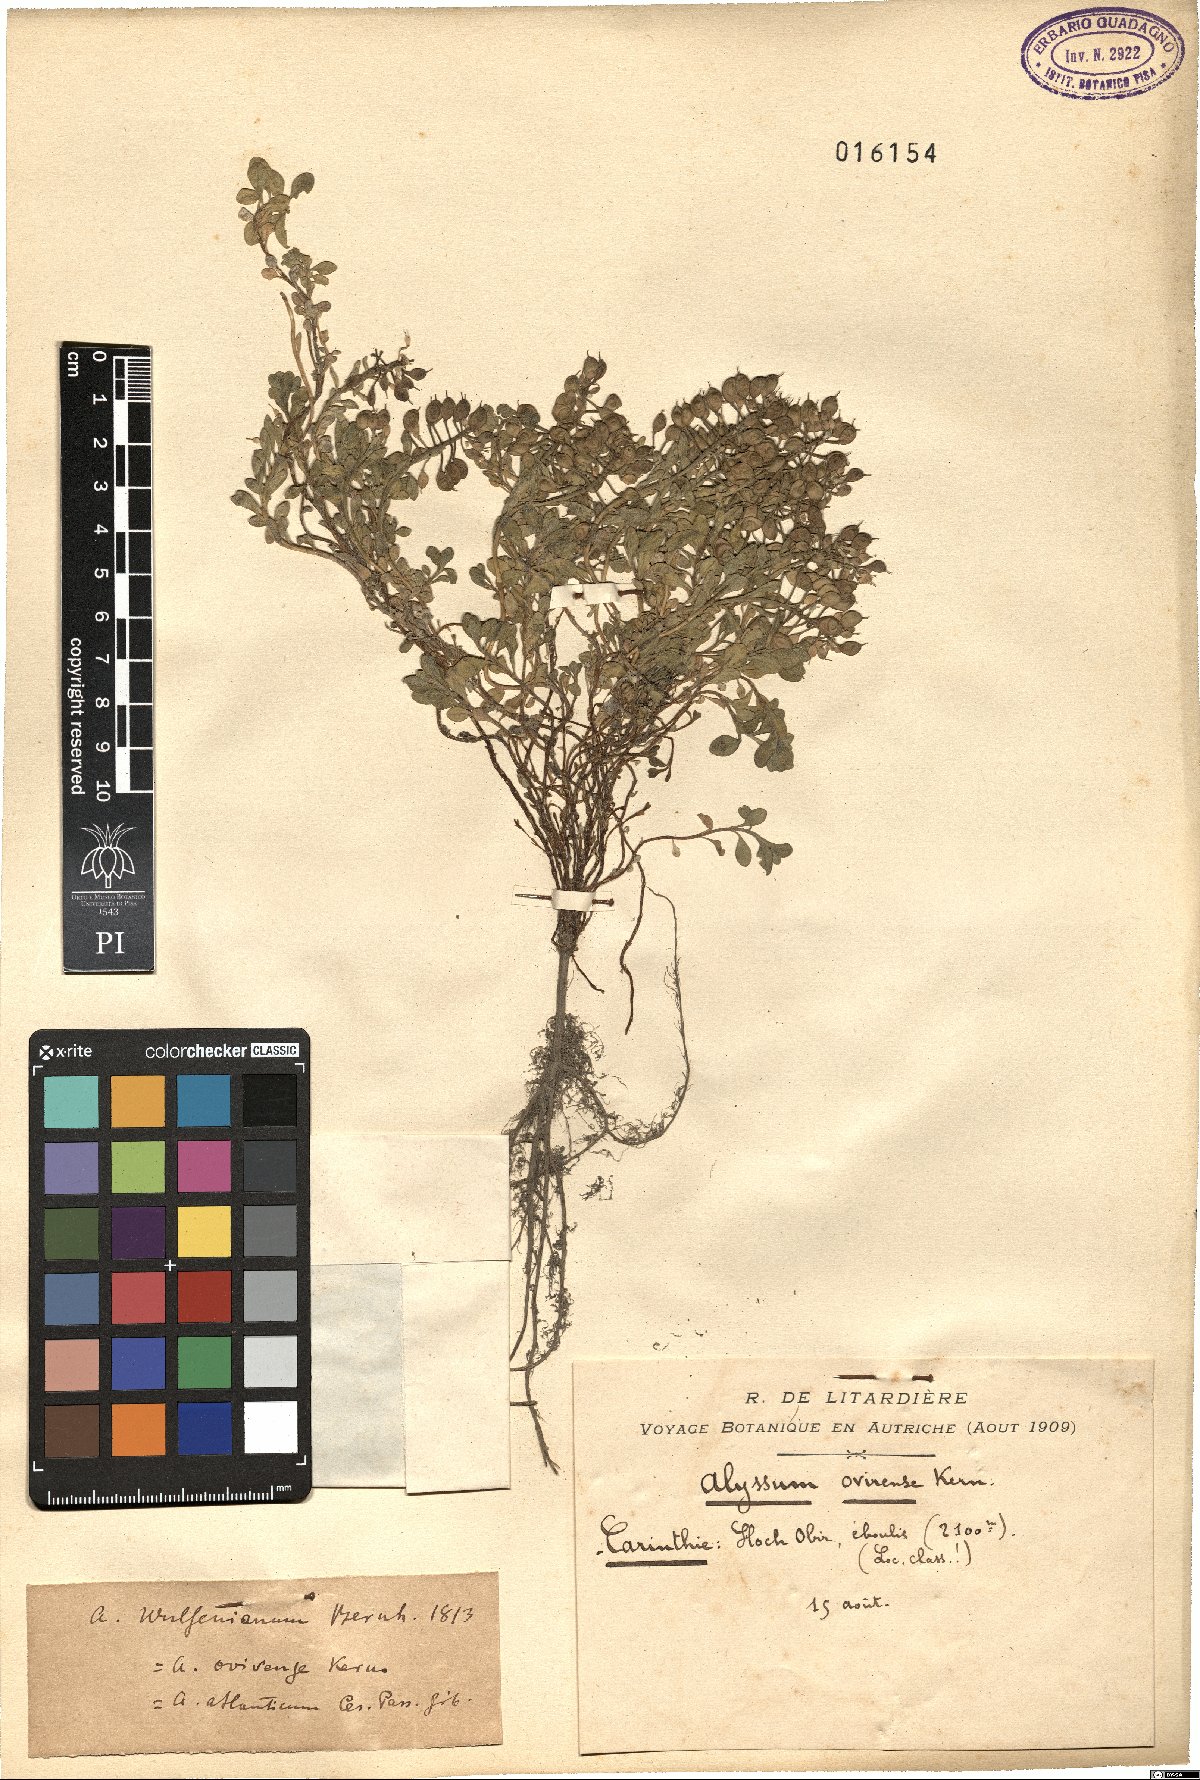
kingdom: Plantae
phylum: Tracheophyta
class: Magnoliopsida
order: Brassicales
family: Brassicaceae
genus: Alyssum
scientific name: Alyssum wulfenianum
